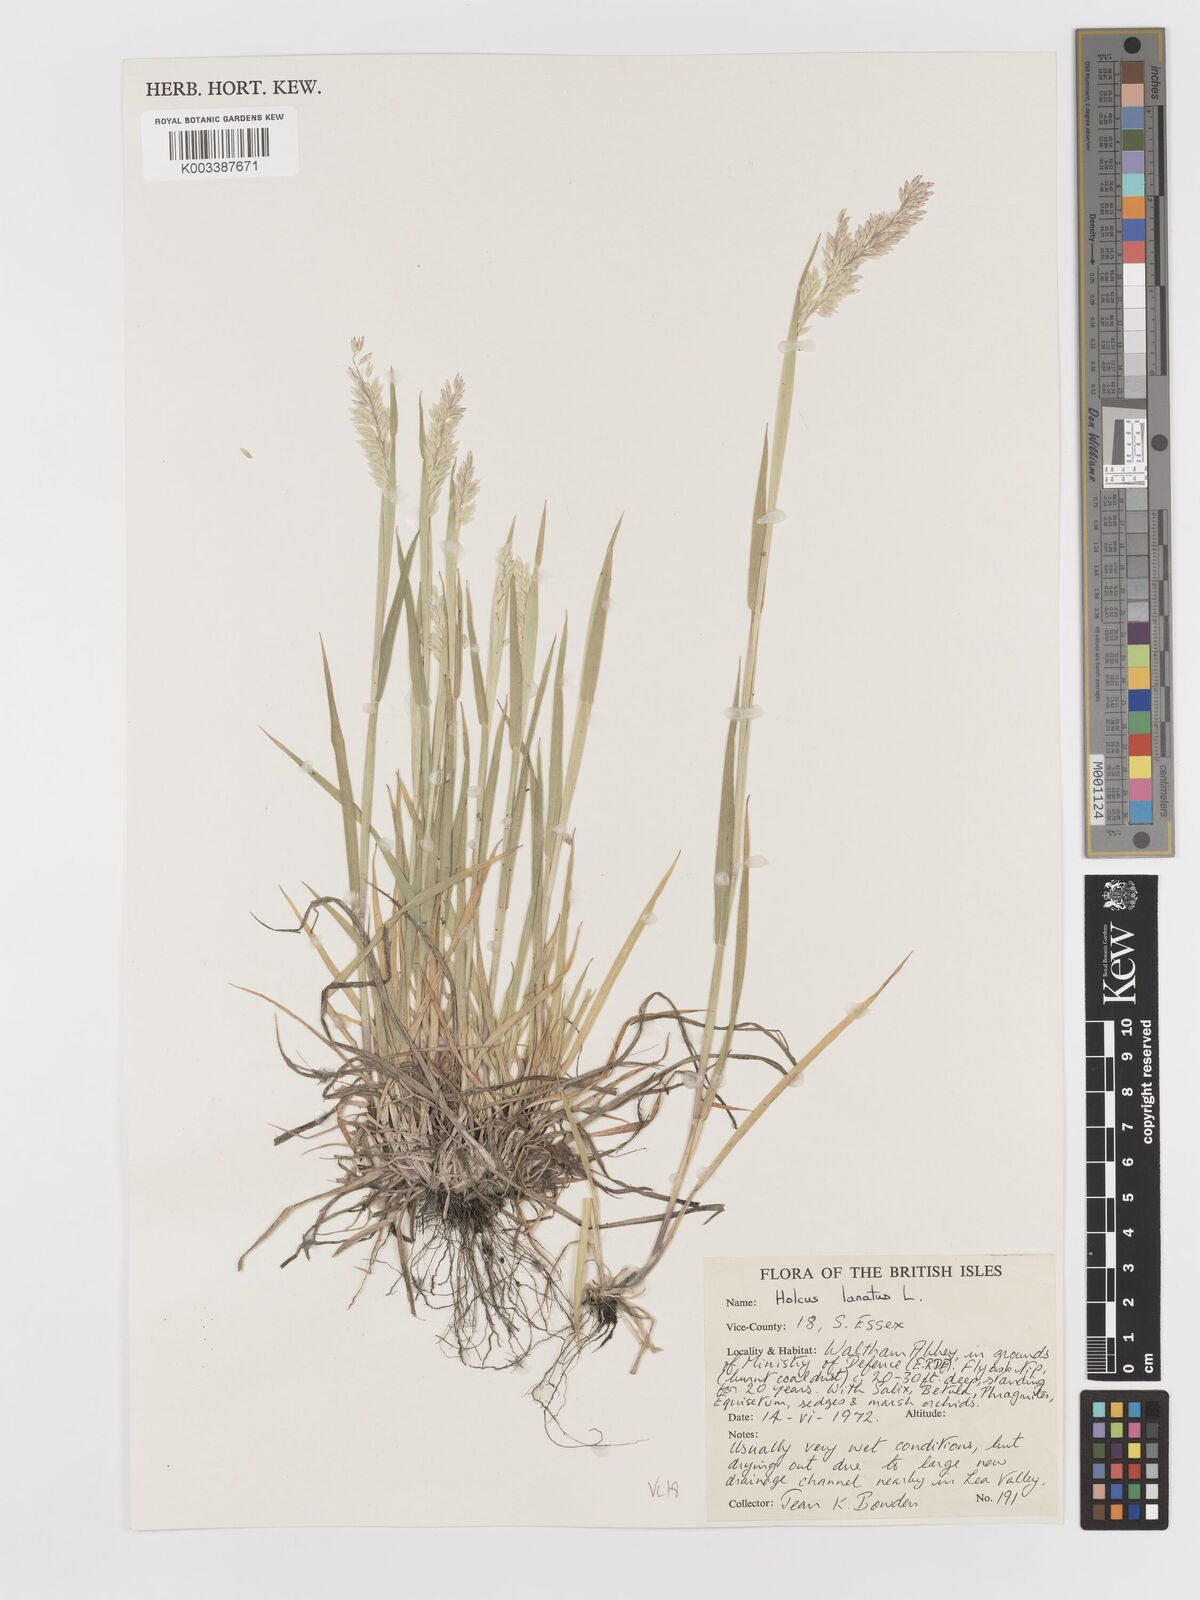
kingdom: Plantae
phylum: Tracheophyta
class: Liliopsida
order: Poales
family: Poaceae
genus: Holcus
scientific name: Holcus lanatus
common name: Yorkshire-fog
